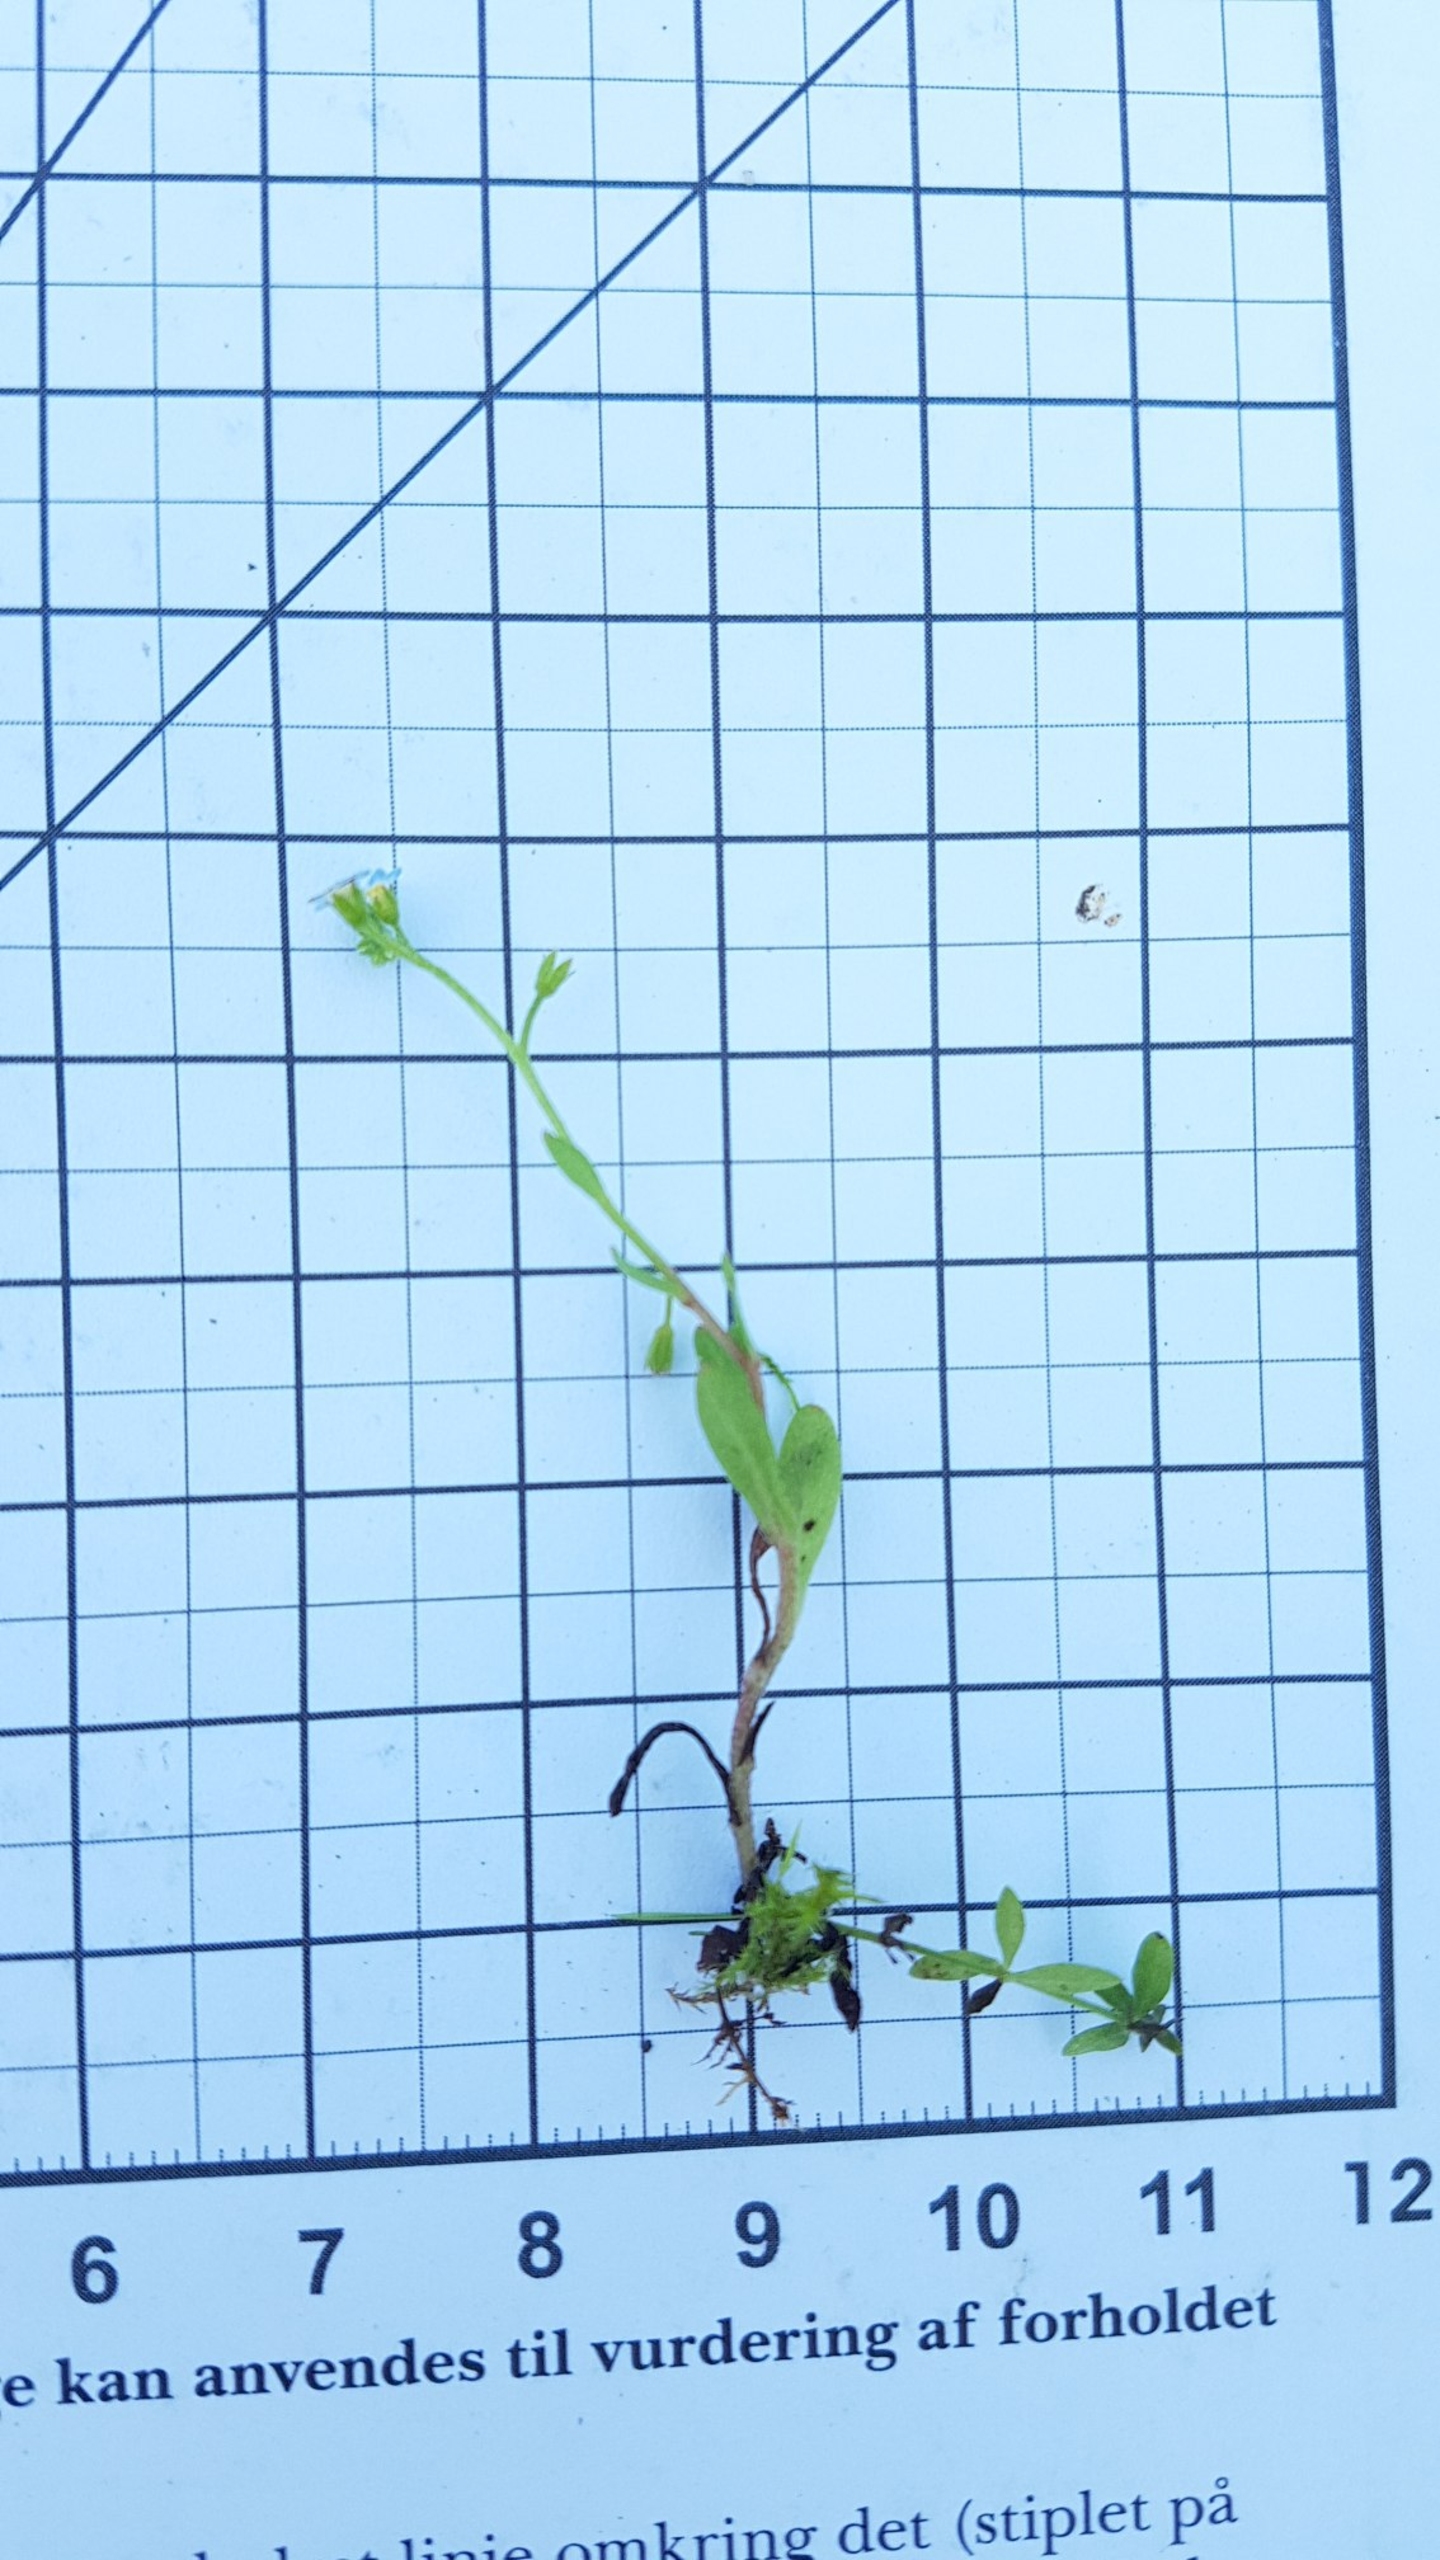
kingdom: Plantae
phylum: Tracheophyta
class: Magnoliopsida
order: Boraginales
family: Boraginaceae
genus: Myosotis
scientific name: Myosotis arvensis
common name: Mark-forglemmigej
